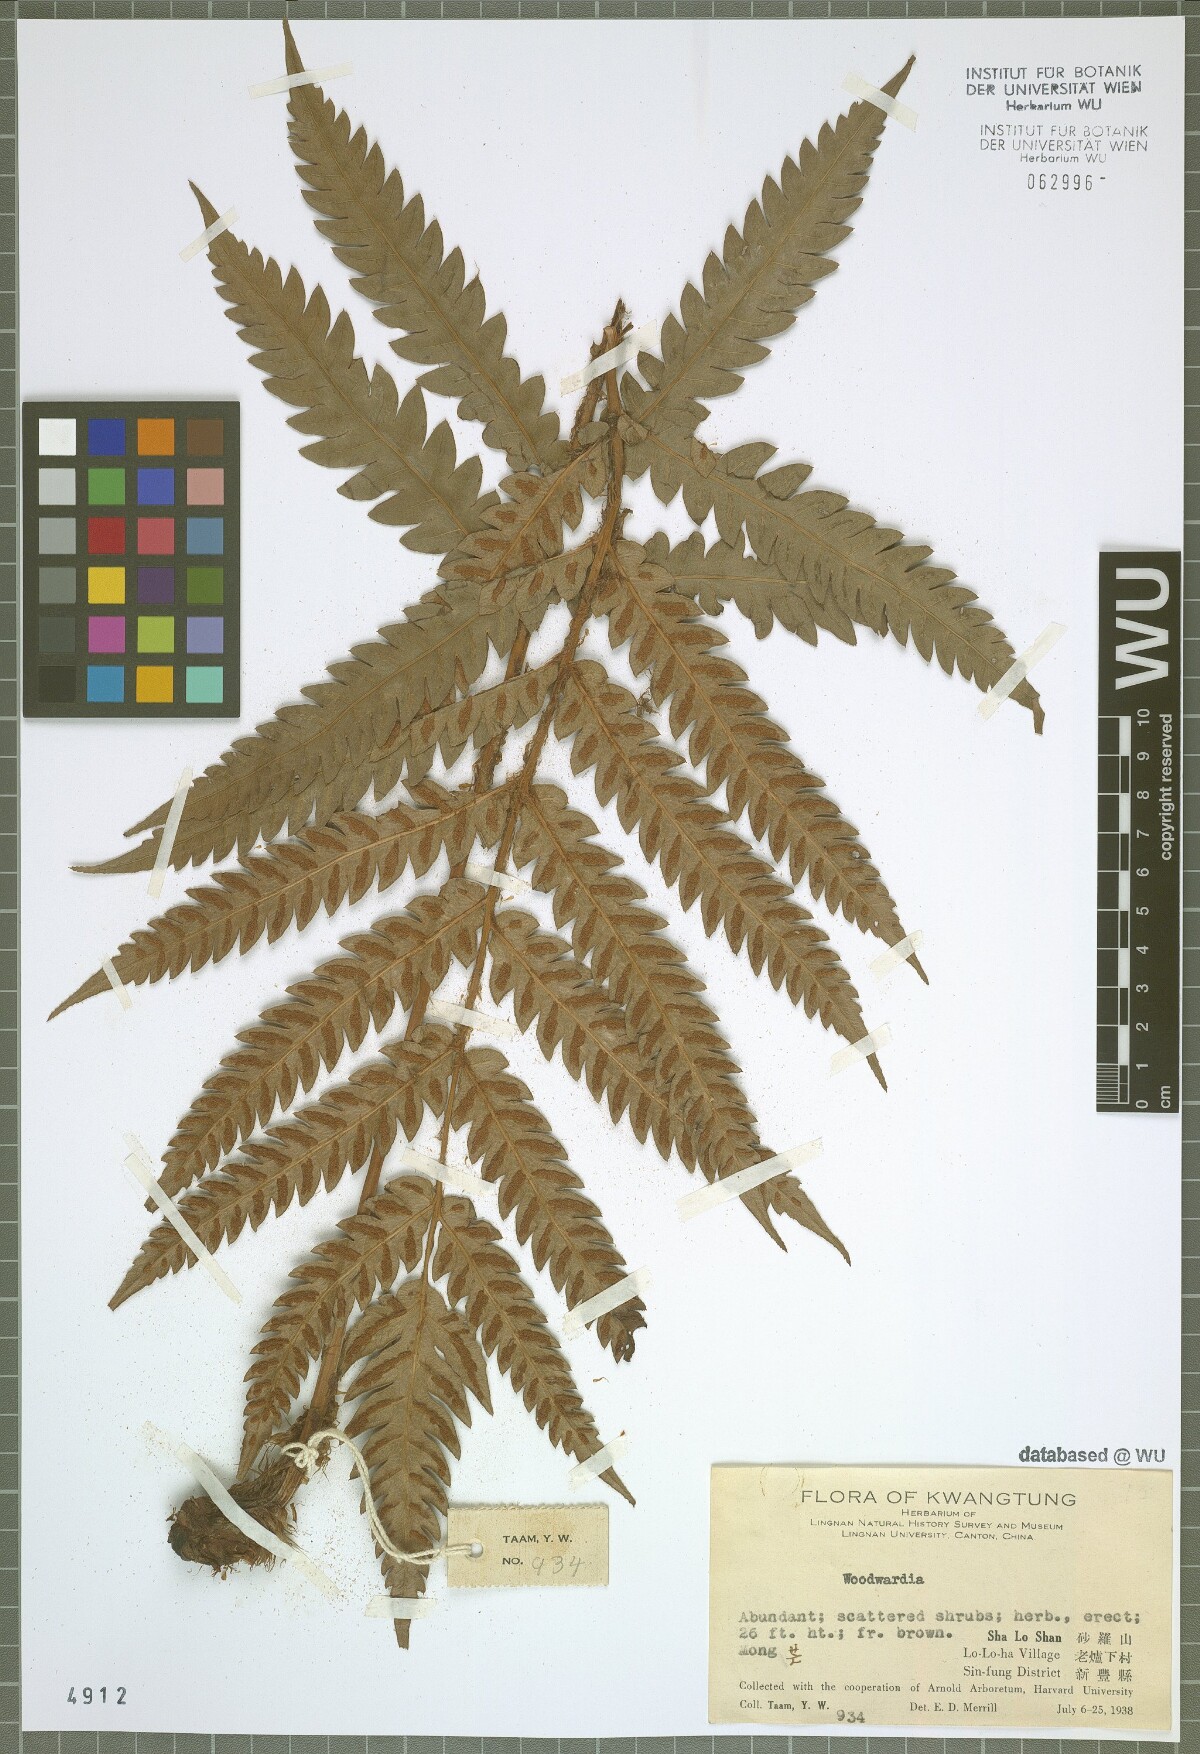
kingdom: Plantae
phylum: Tracheophyta
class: Polypodiopsida
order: Polypodiales
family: Blechnaceae
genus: Woodwardia
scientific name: Woodwardia
